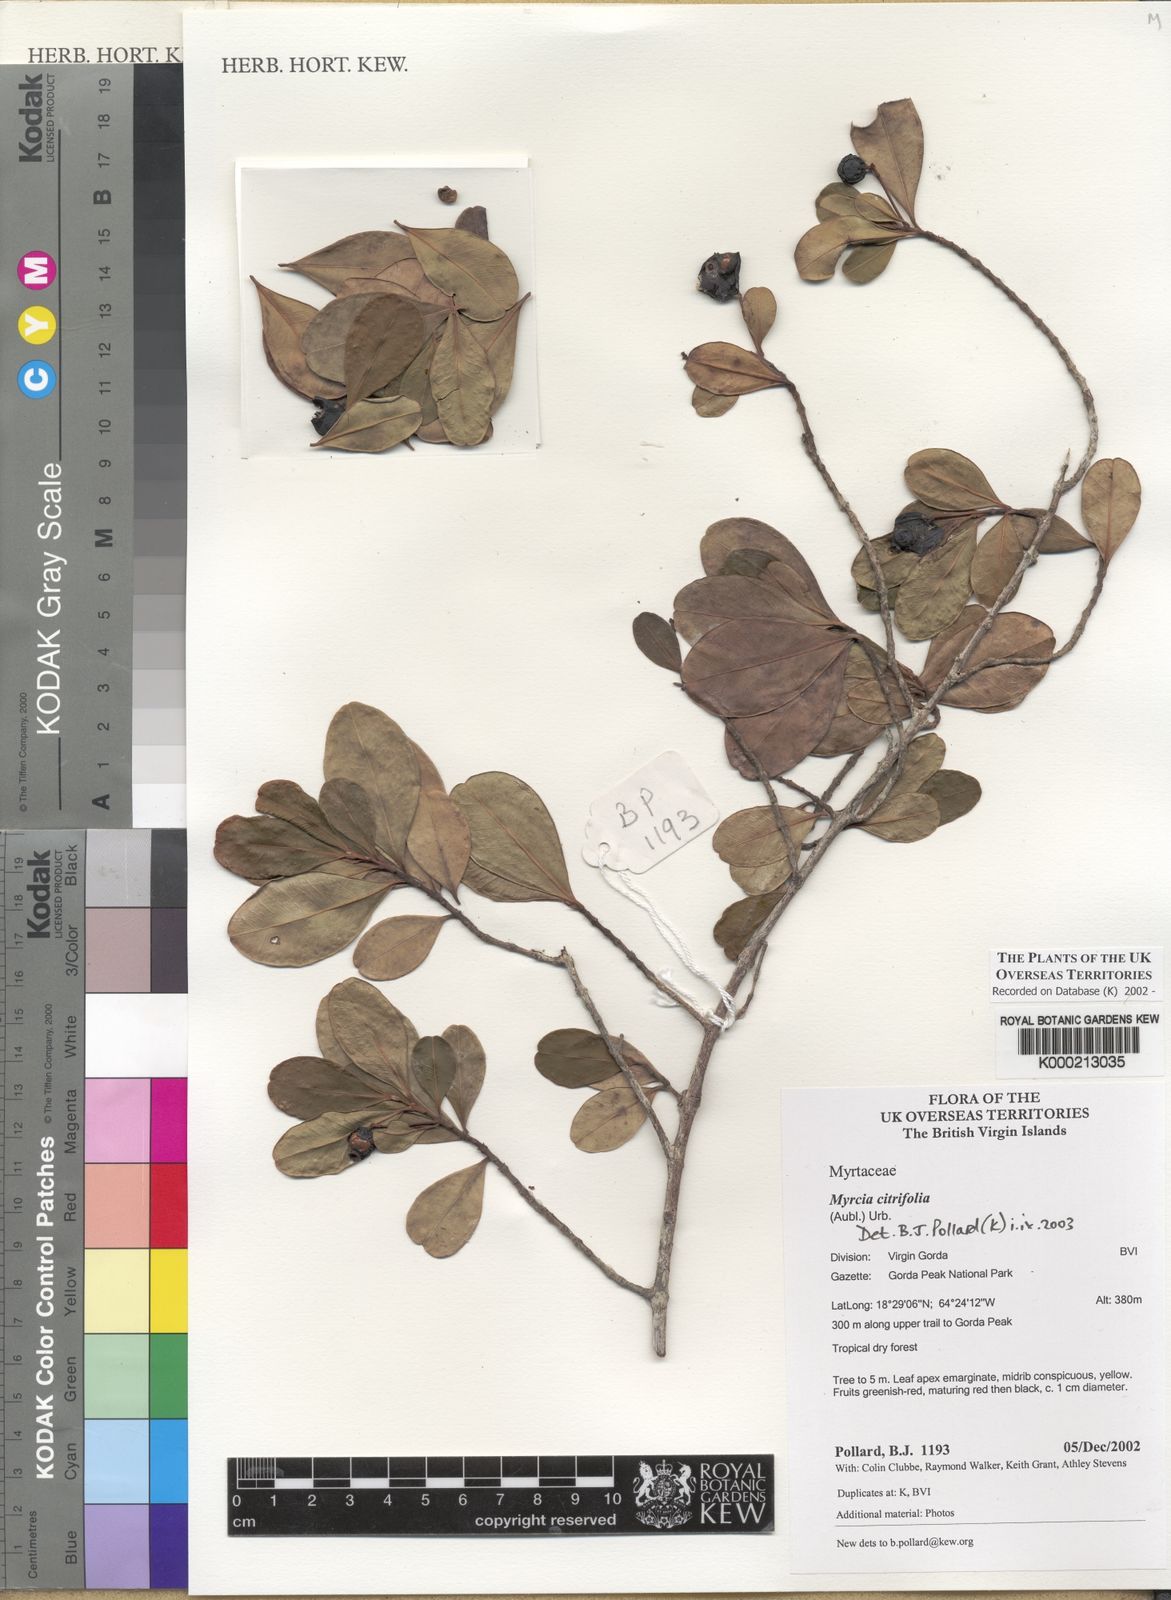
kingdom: Plantae
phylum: Tracheophyta
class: Magnoliopsida
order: Myrtales
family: Myrtaceae
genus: Myrcia
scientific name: Myrcia guianensis
